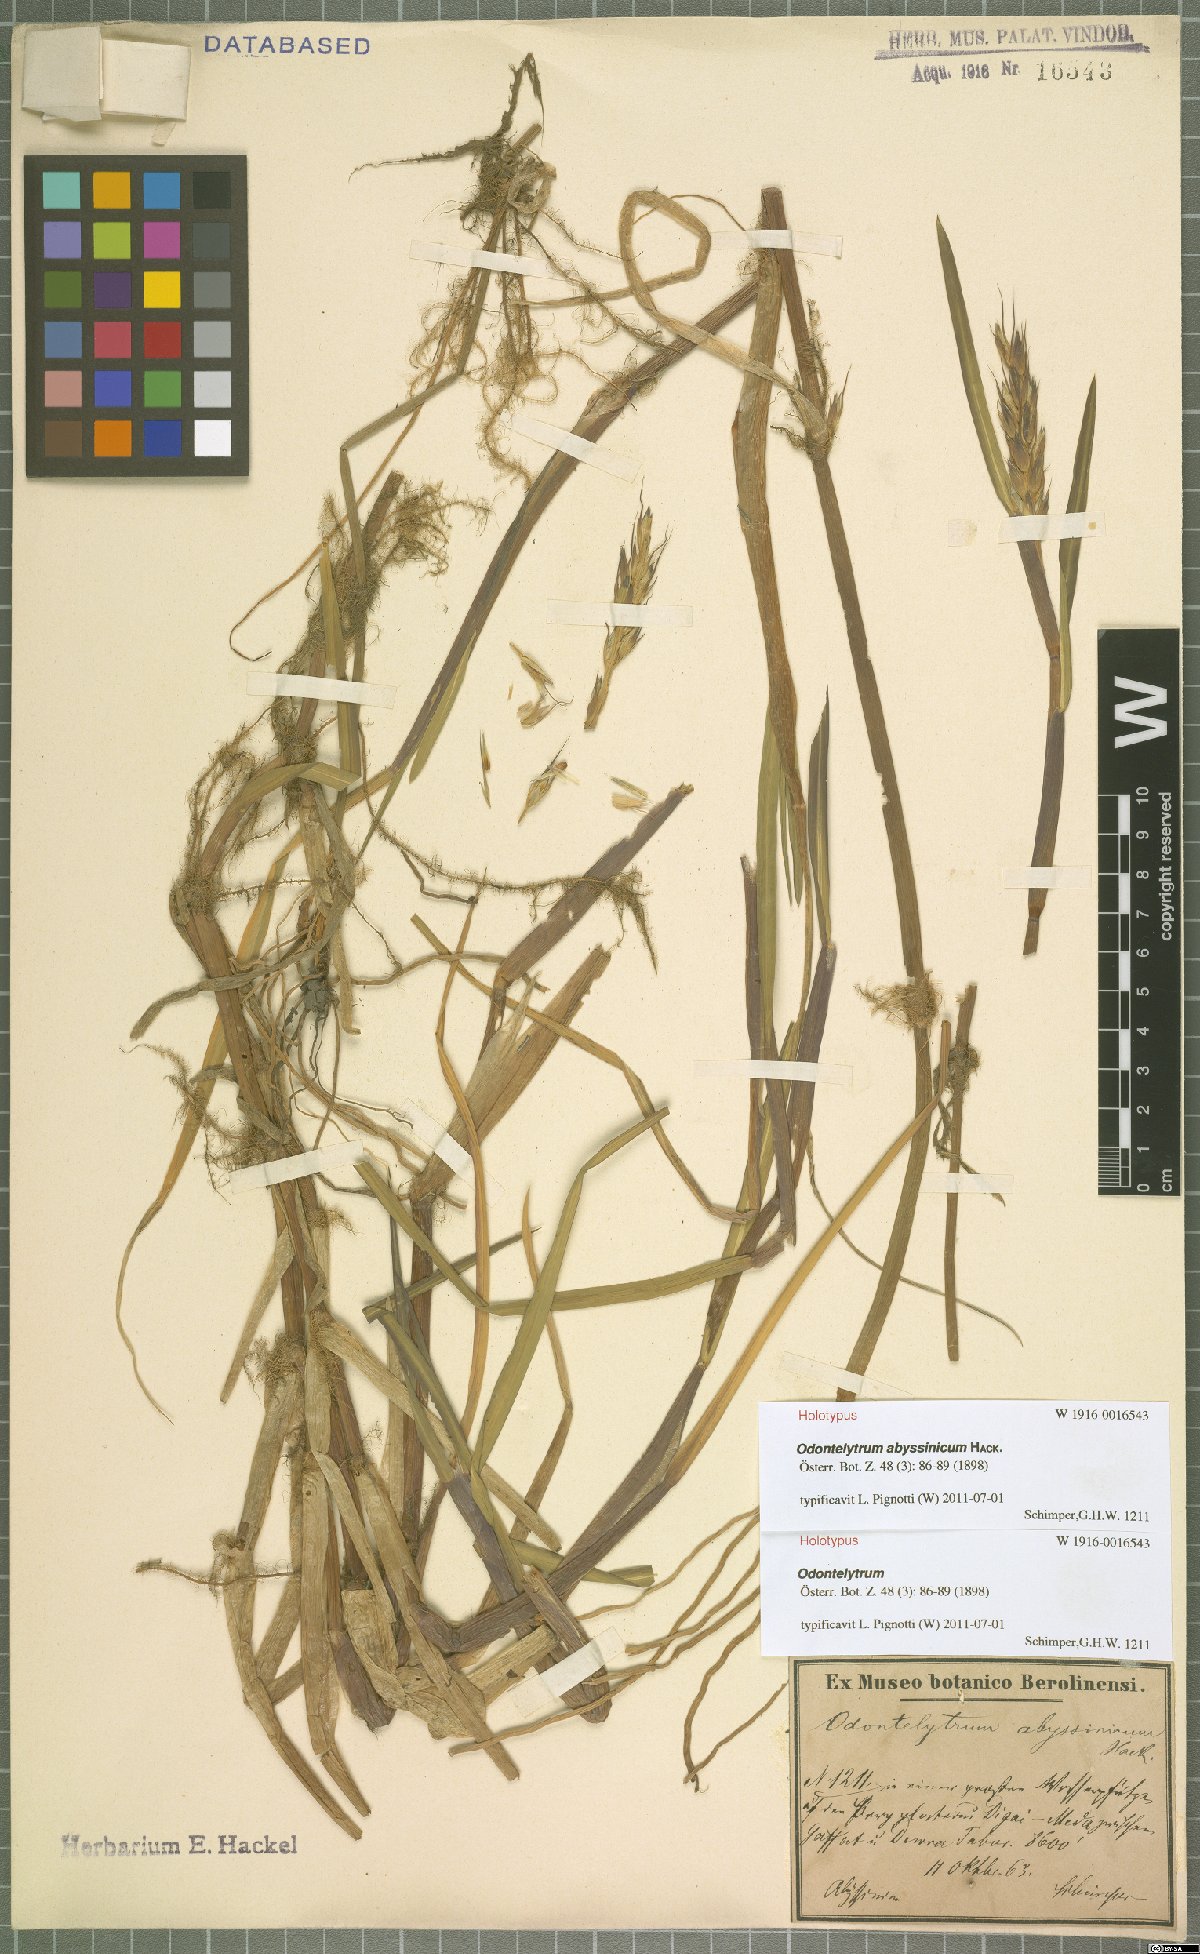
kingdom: Plantae
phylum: Tracheophyta
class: Liliopsida
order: Poales
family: Poaceae
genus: Cenchrus
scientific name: Cenchrus abyssinicus
